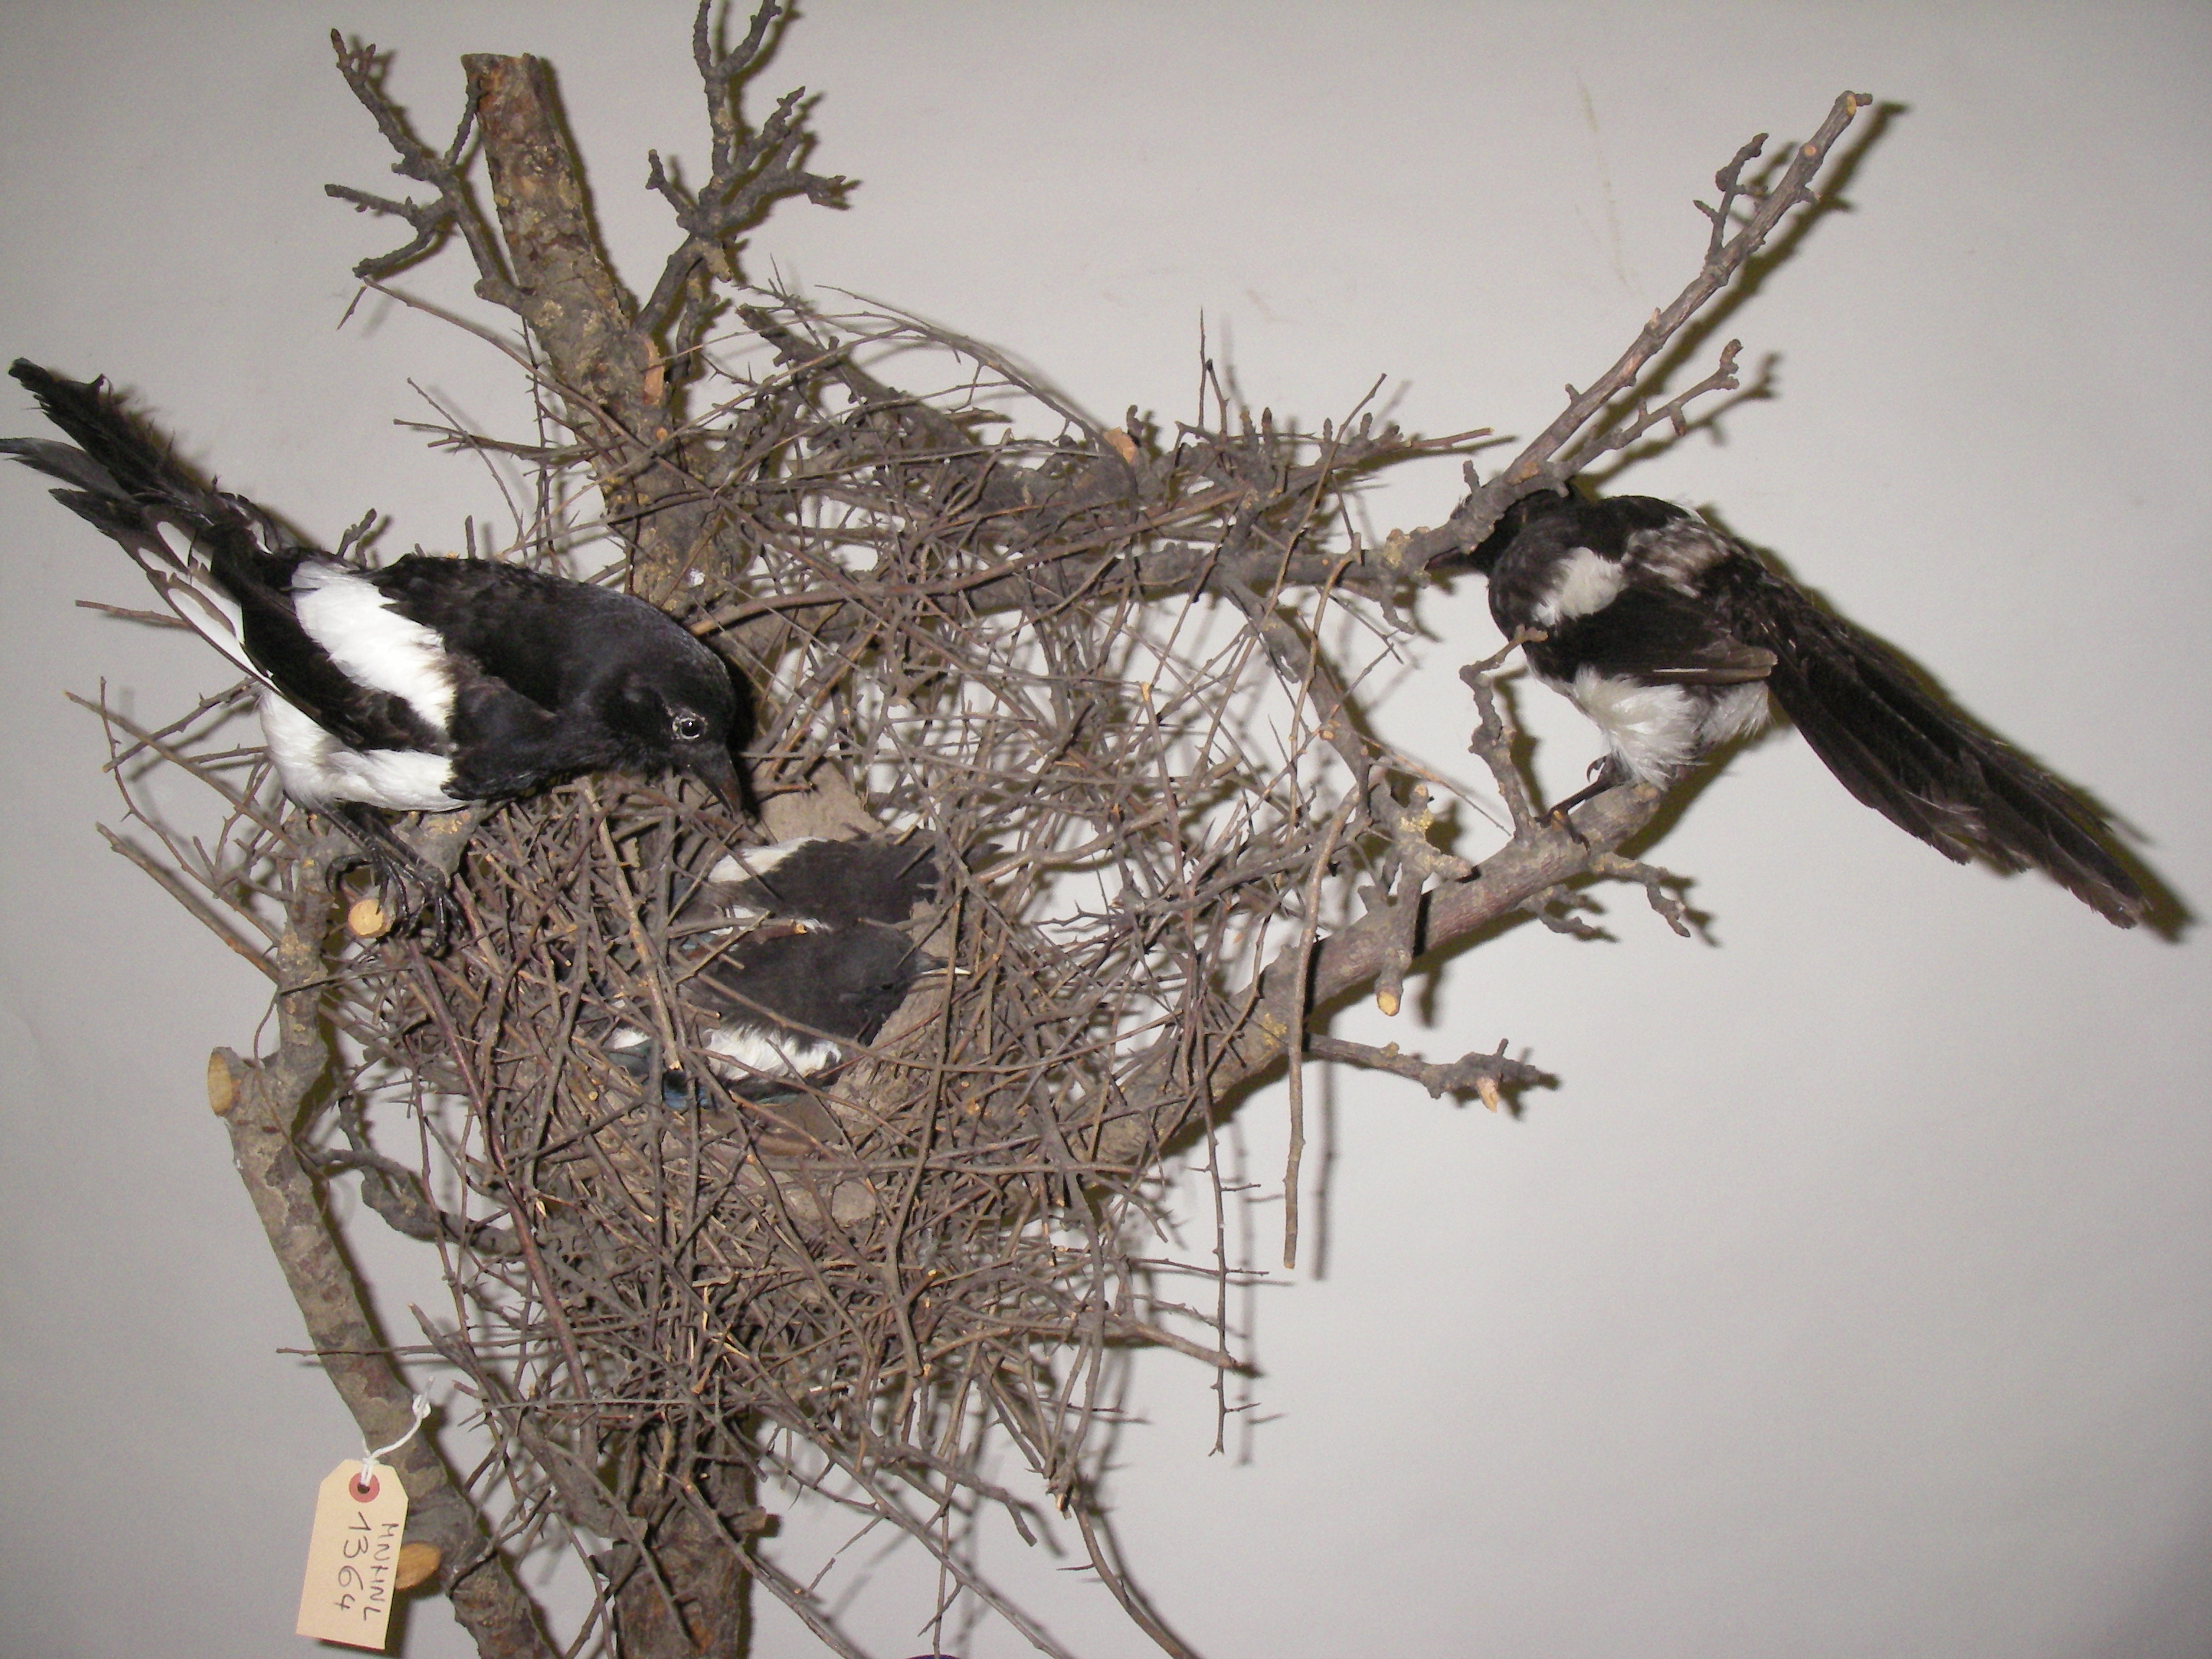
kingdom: Animalia
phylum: Chordata
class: Aves
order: Passeriformes
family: Corvidae
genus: Pica
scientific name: Pica pica
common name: Eurasian magpie
